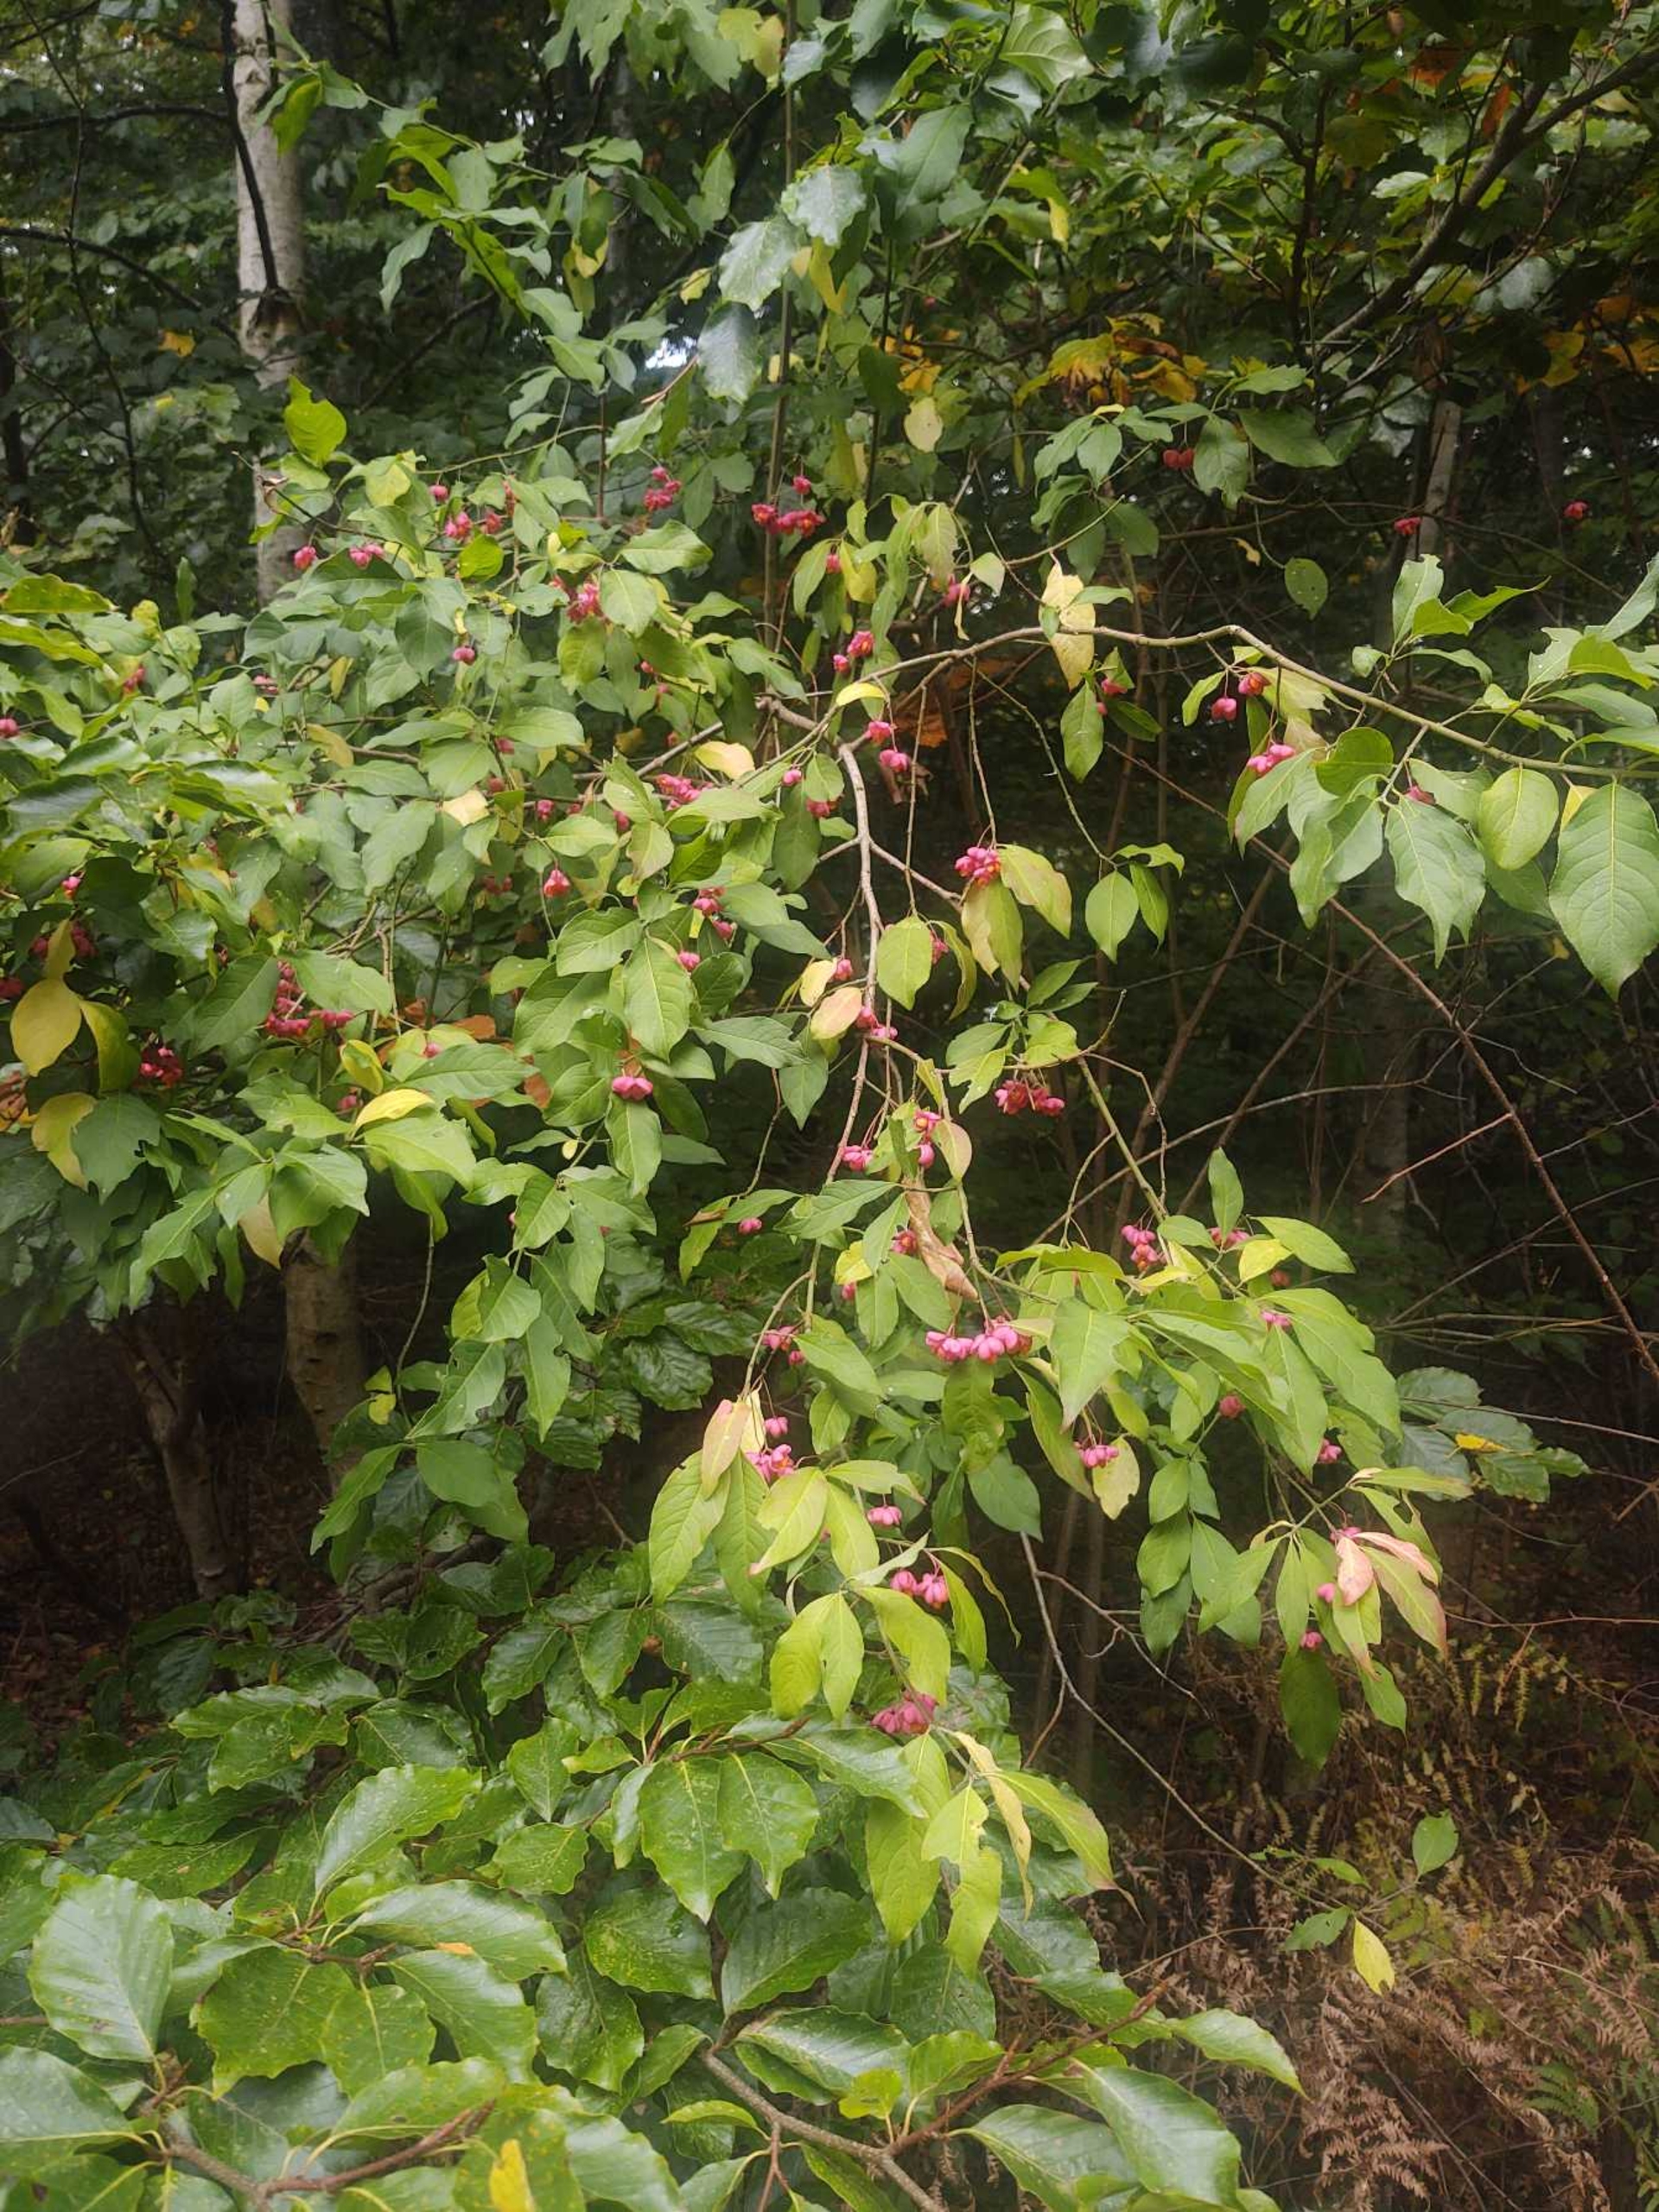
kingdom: Plantae
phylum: Tracheophyta
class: Magnoliopsida
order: Celastrales
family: Celastraceae
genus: Euonymus
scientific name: Euonymus europaeus
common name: Benved
